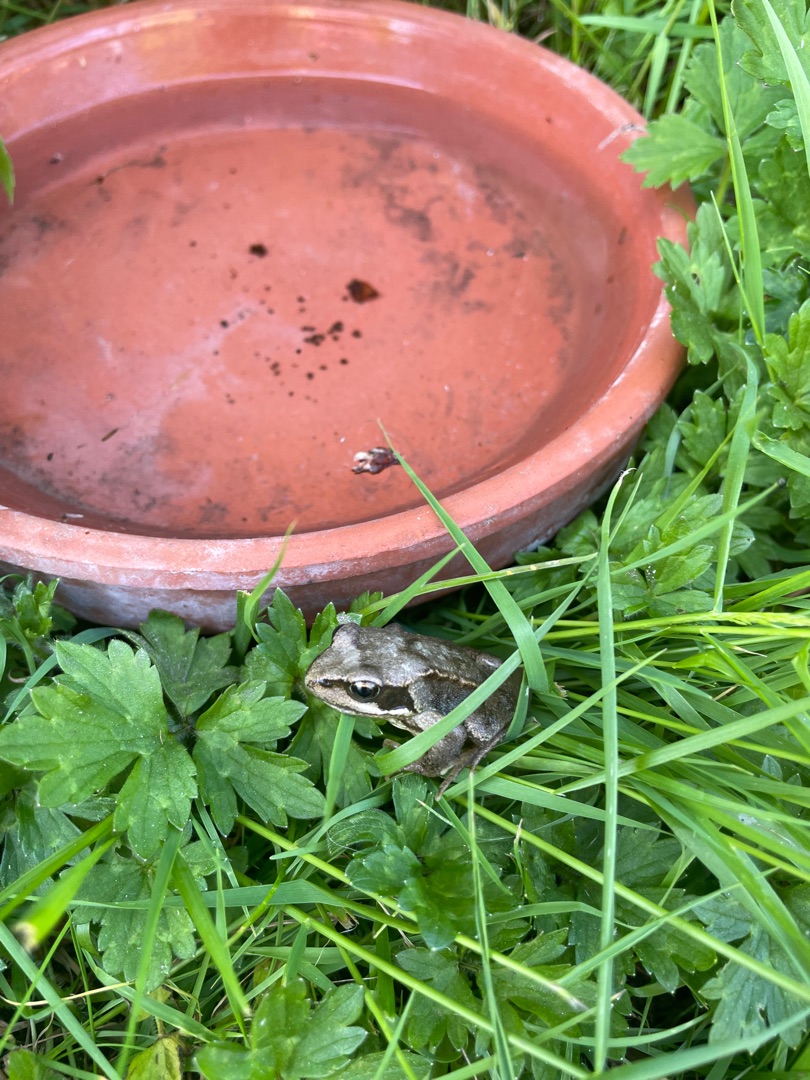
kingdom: Animalia
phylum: Chordata
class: Amphibia
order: Anura
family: Ranidae
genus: Rana
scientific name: Rana temporaria
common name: Butsnudet frø
